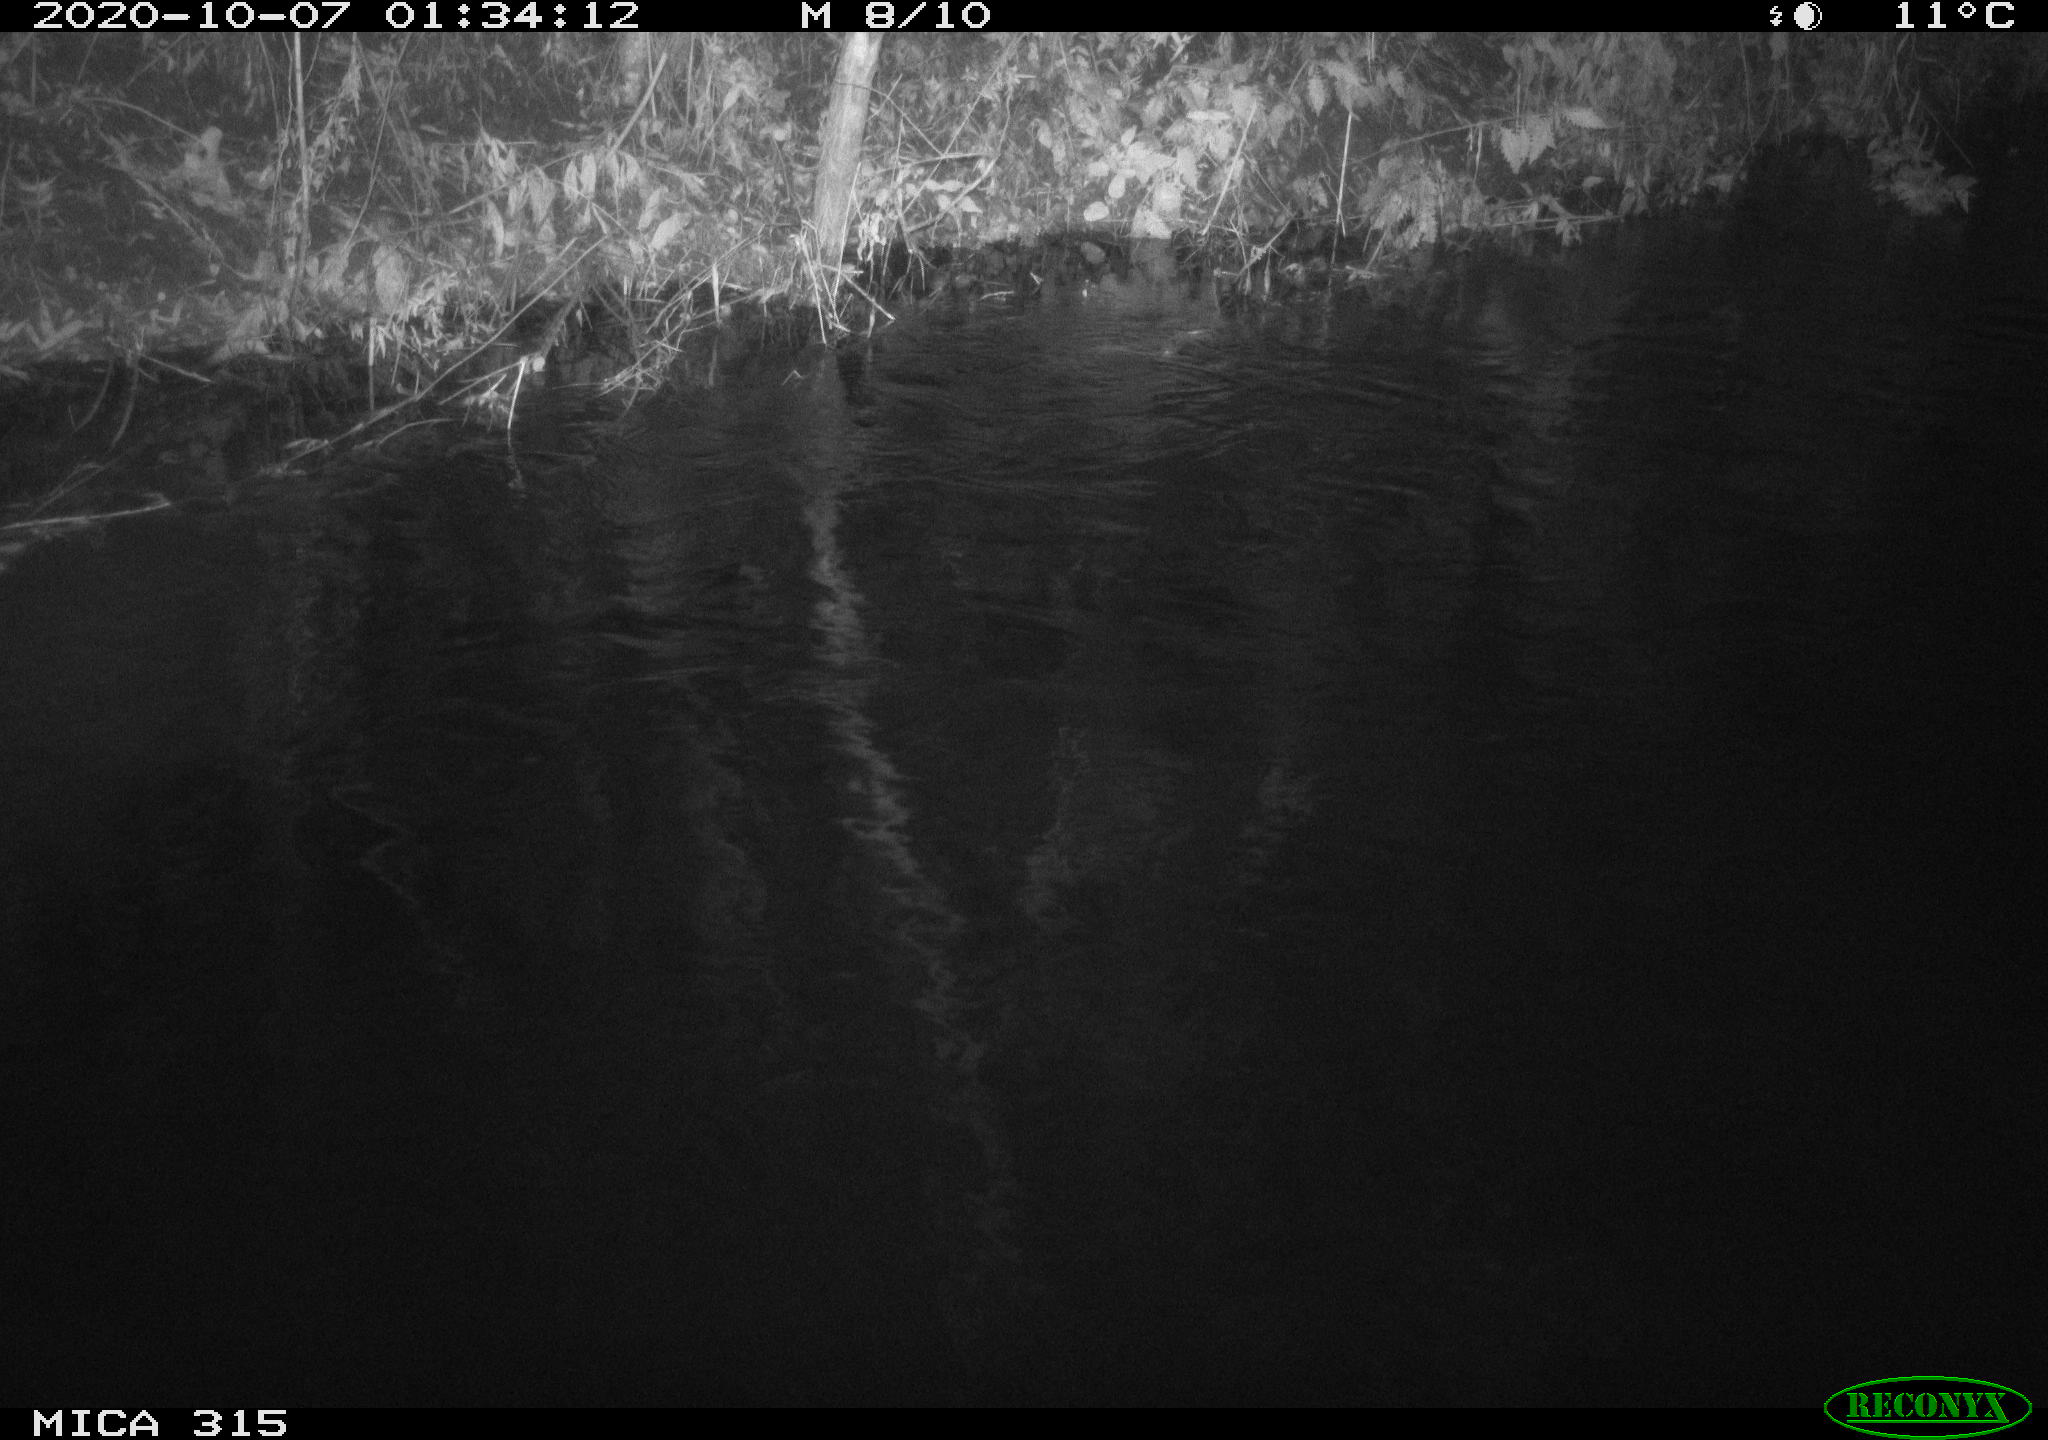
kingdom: Animalia
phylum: Chordata
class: Aves
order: Anseriformes
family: Anatidae
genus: Anas
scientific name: Anas platyrhynchos
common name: Mallard
